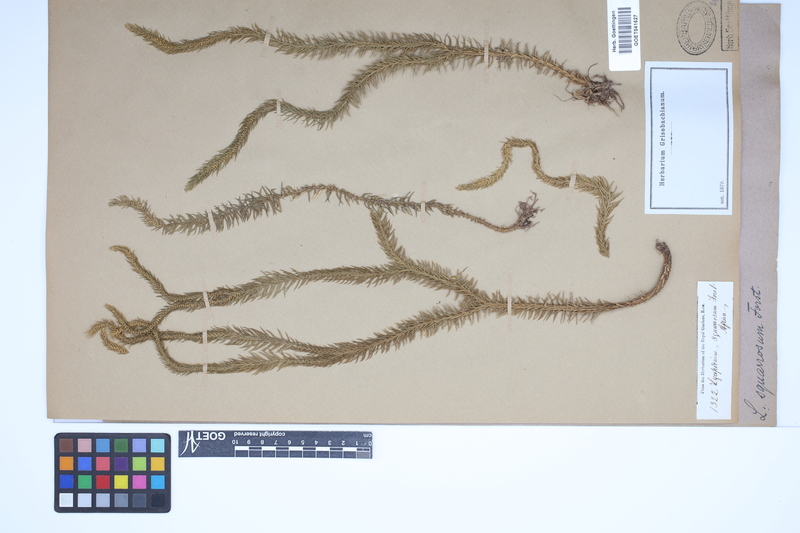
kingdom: Plantae
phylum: Tracheophyta
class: Lycopodiopsida
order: Lycopodiales
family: Lycopodiaceae
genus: Phlegmariurus
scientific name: Phlegmariurus squarrosus
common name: Rock tassel-fern
